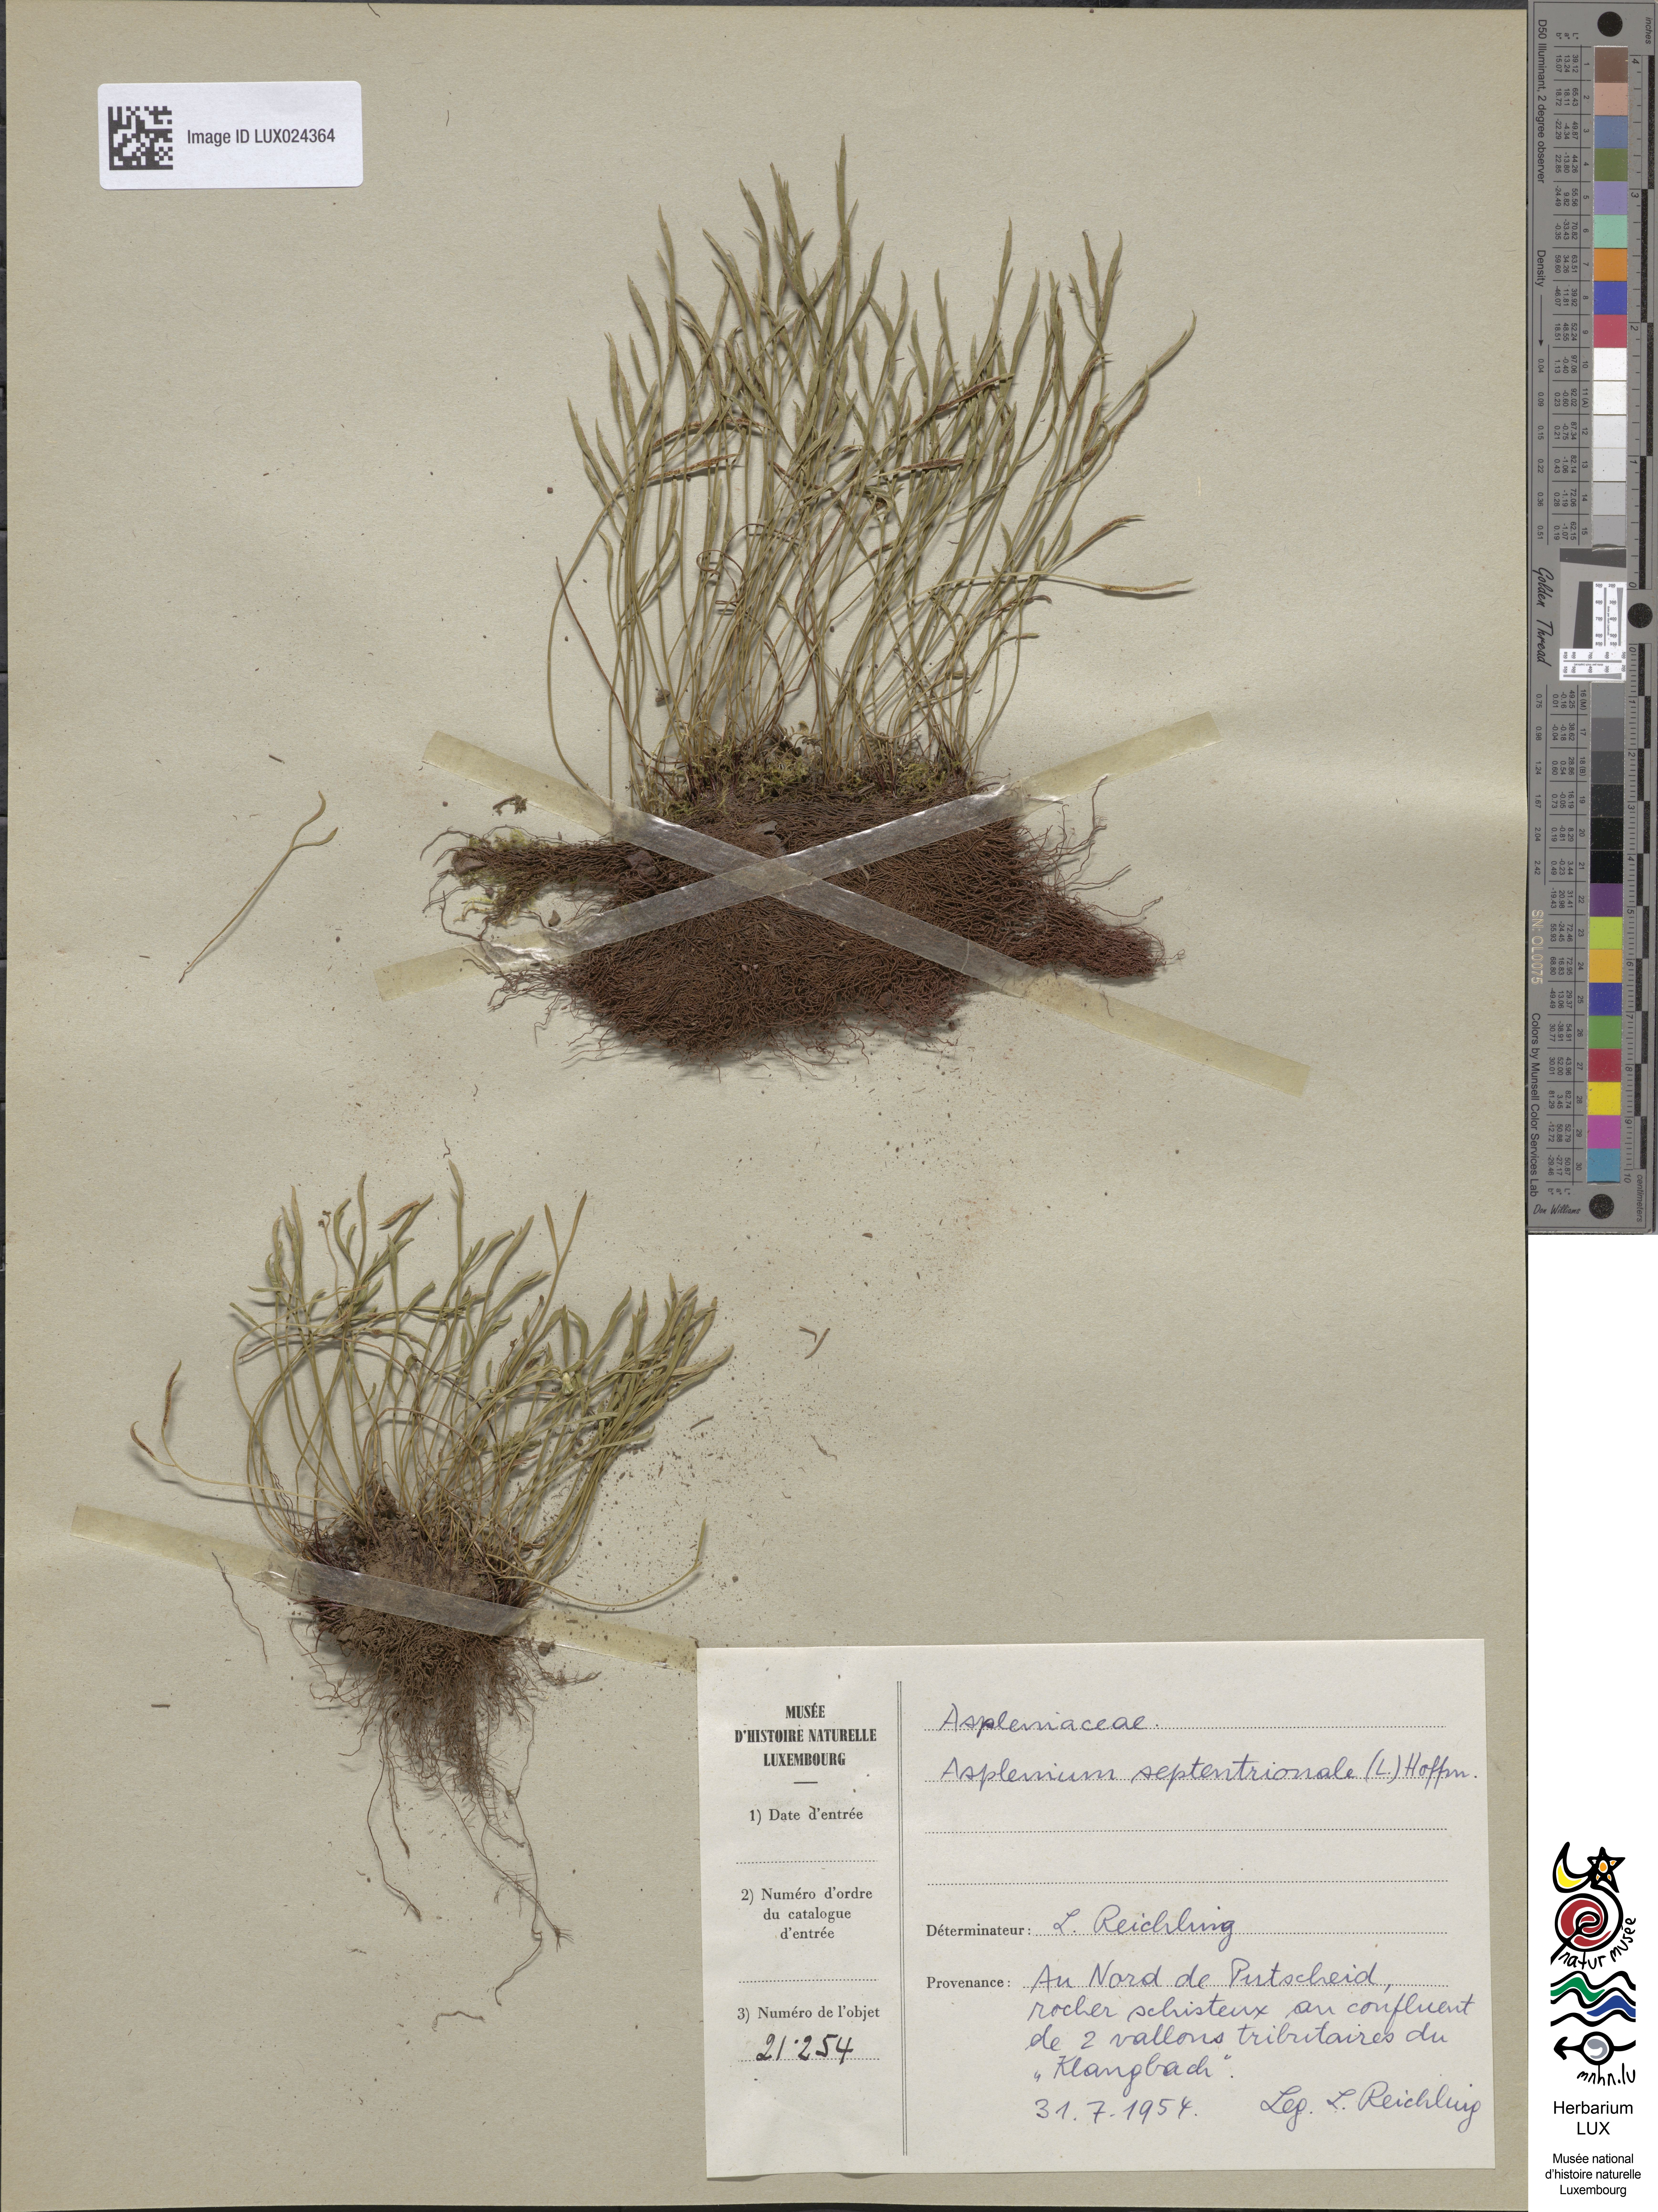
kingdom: Plantae
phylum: Tracheophyta
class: Polypodiopsida
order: Polypodiales
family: Aspleniaceae
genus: Asplenium
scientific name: Asplenium septentrionale
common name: Forked spleenwort
